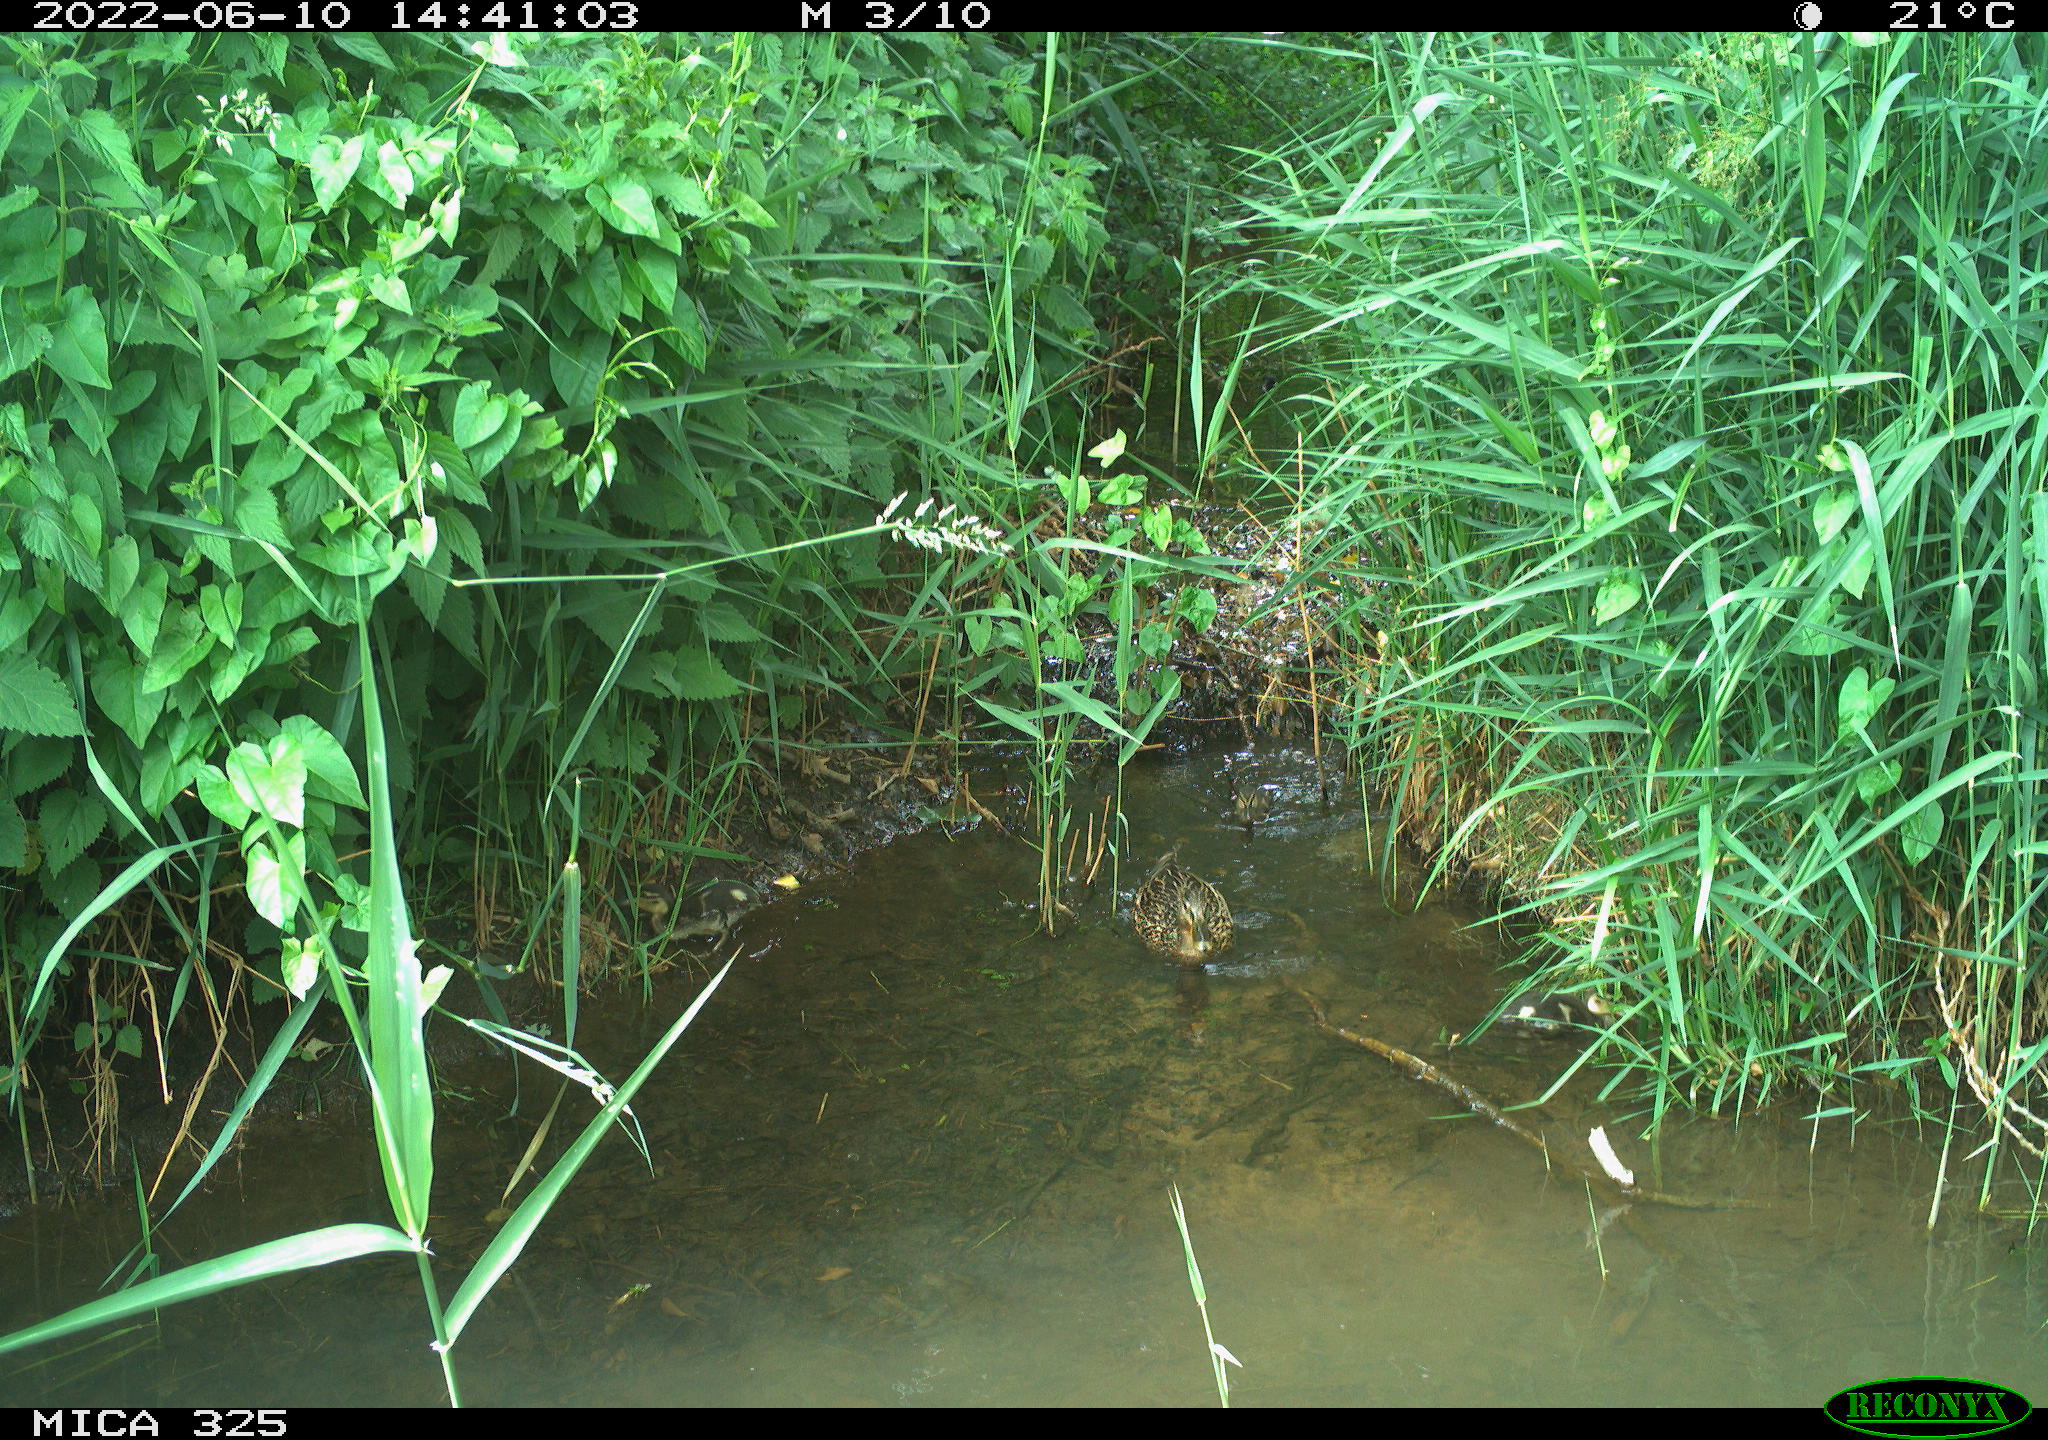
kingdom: Animalia
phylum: Chordata
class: Aves
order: Anseriformes
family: Anatidae
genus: Anas
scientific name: Anas platyrhynchos
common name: Mallard
